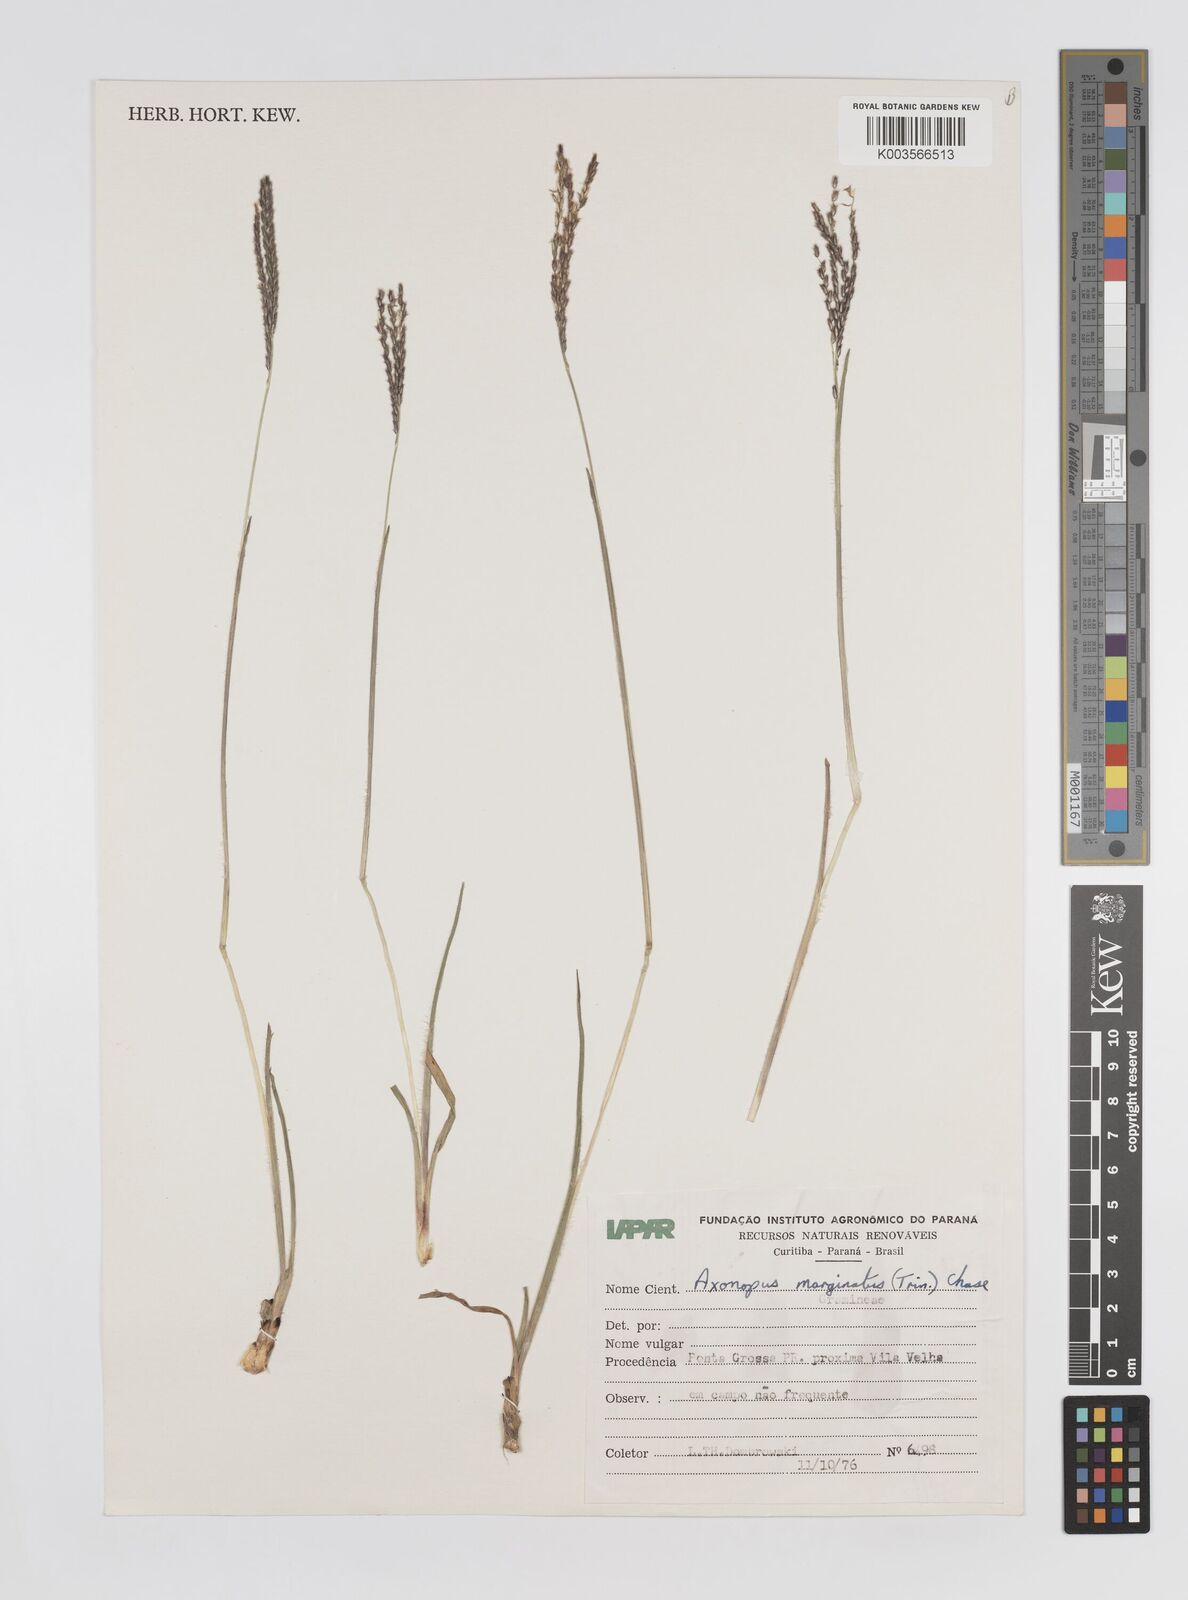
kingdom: Plantae
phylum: Tracheophyta
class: Liliopsida
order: Poales
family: Poaceae
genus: Axonopus
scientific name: Axonopus marginatus
